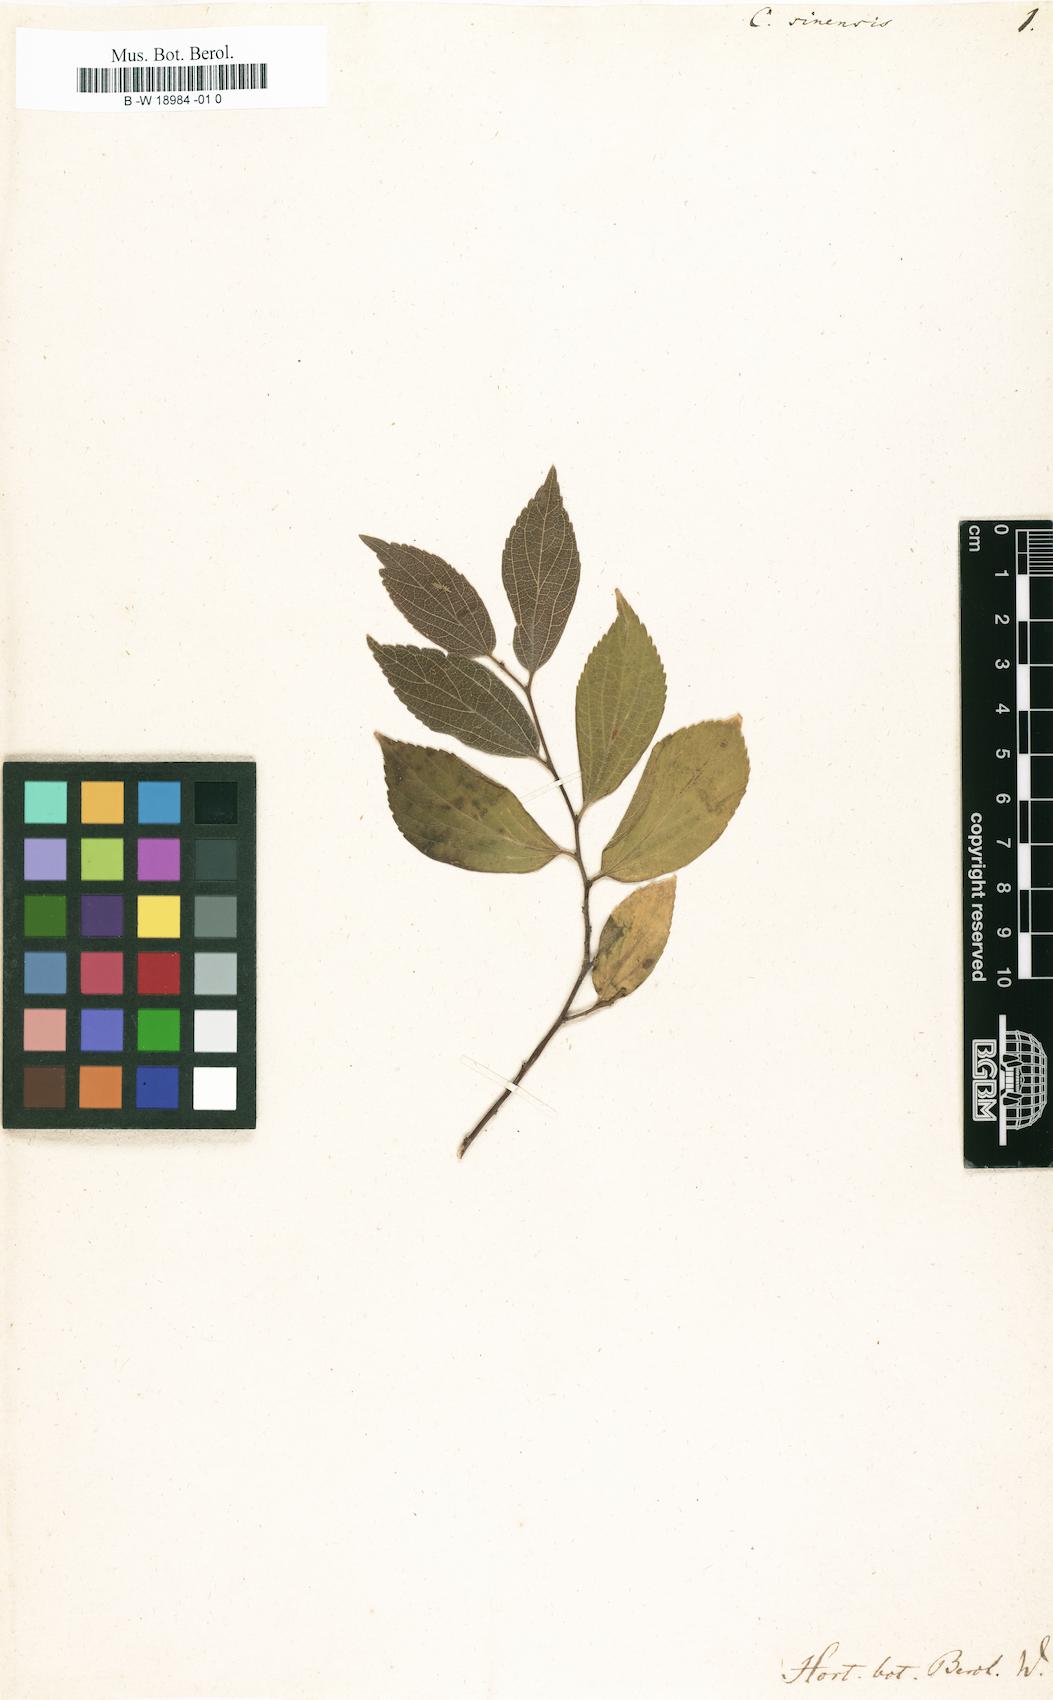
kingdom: Plantae
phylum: Tracheophyta
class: Magnoliopsida
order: Rosales
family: Cannabaceae
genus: Celtis
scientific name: Celtis sinensis
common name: Chinese hackberry
